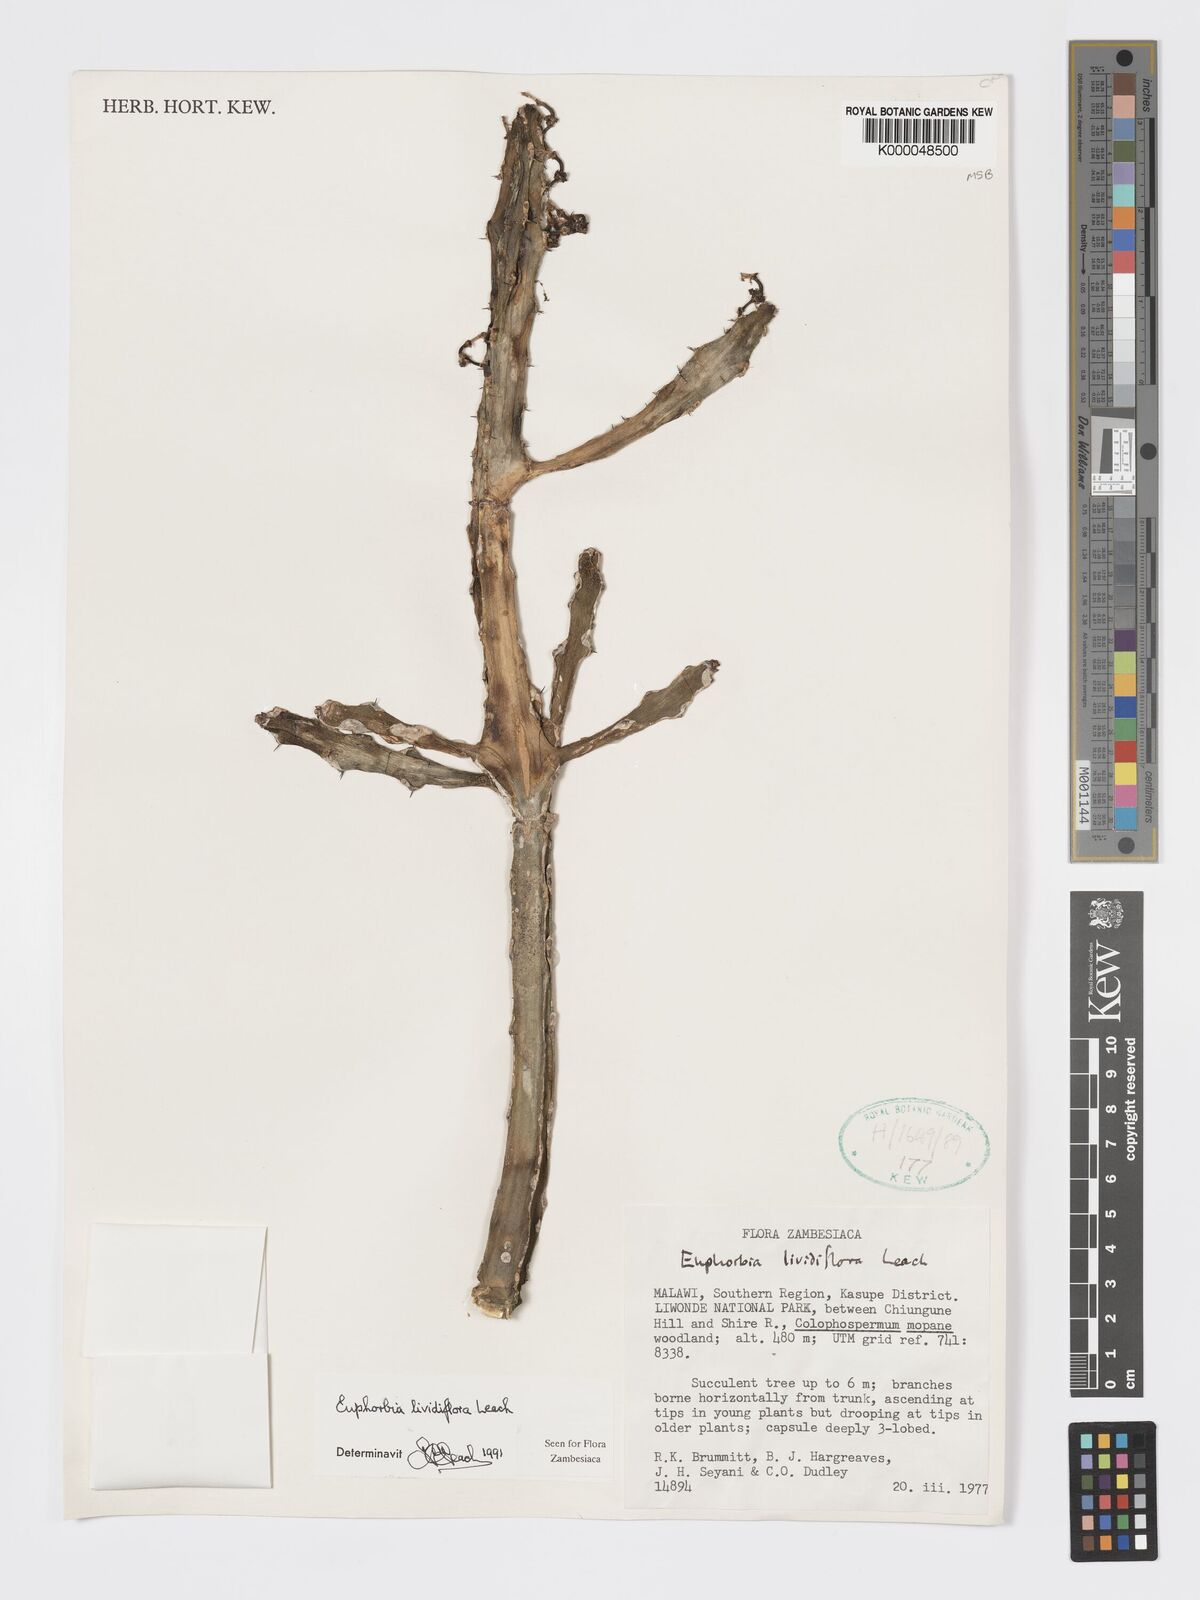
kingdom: Plantae
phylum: Tracheophyta
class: Magnoliopsida
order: Malpighiales
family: Euphorbiaceae
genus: Euphorbia
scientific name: Euphorbia lividiflora
